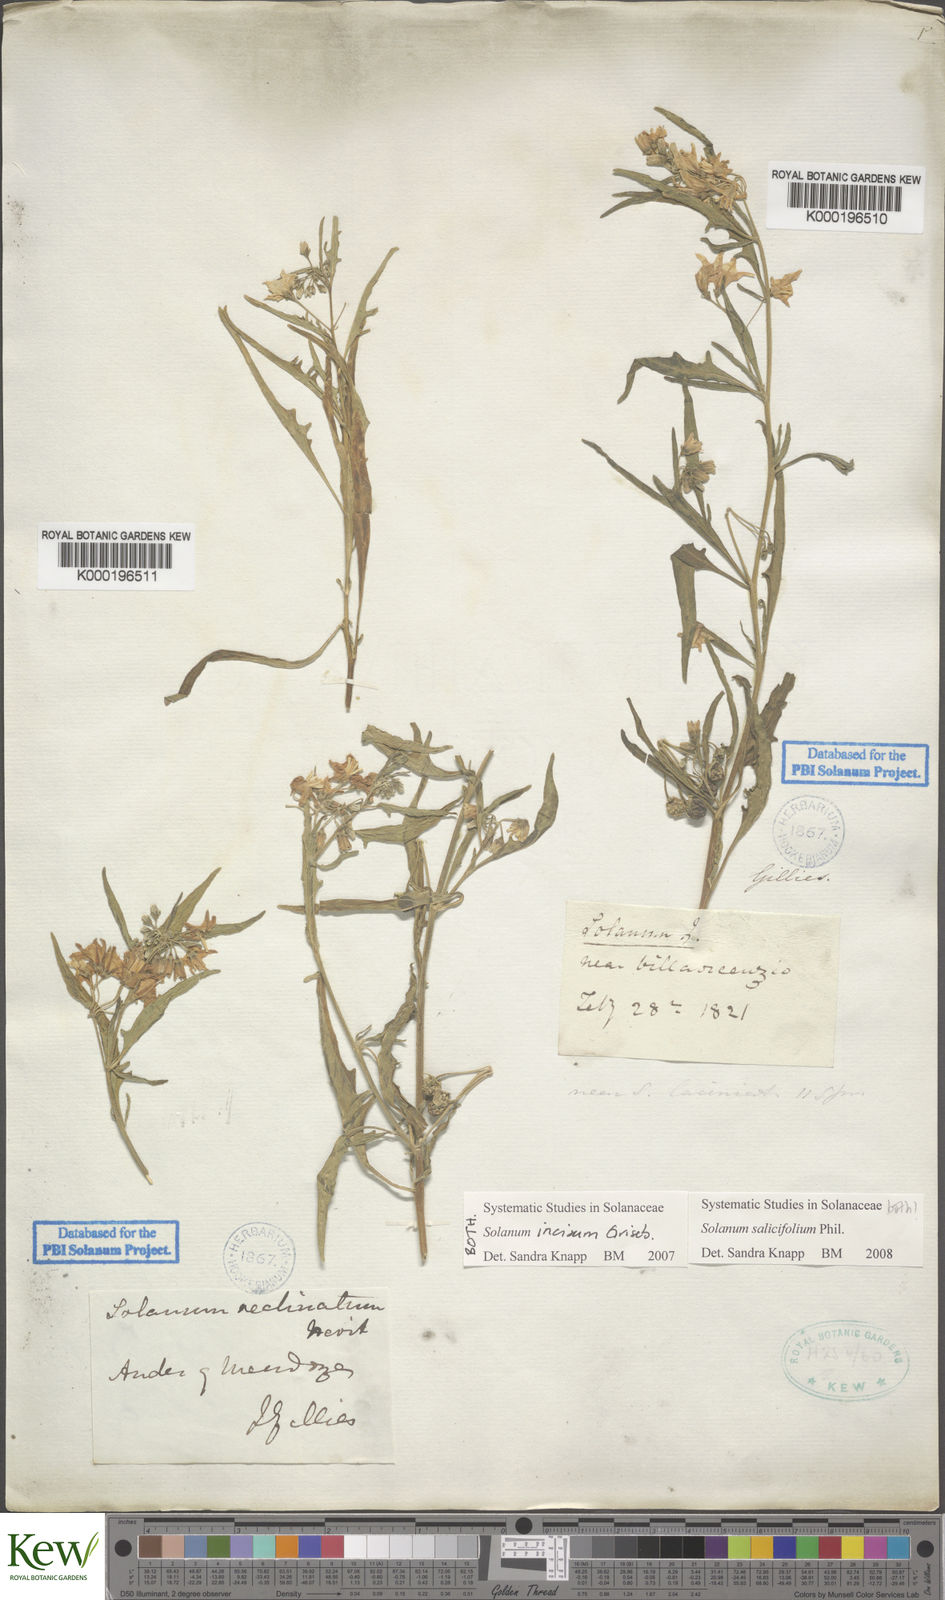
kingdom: Plantae
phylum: Tracheophyta
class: Magnoliopsida
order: Solanales
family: Solanaceae
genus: Solanum
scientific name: Solanum salicifolium
